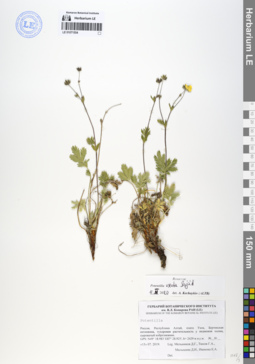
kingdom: Plantae
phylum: Tracheophyta
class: Magnoliopsida
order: Rosales
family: Rosaceae
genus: Potentilla
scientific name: Potentilla exuta
